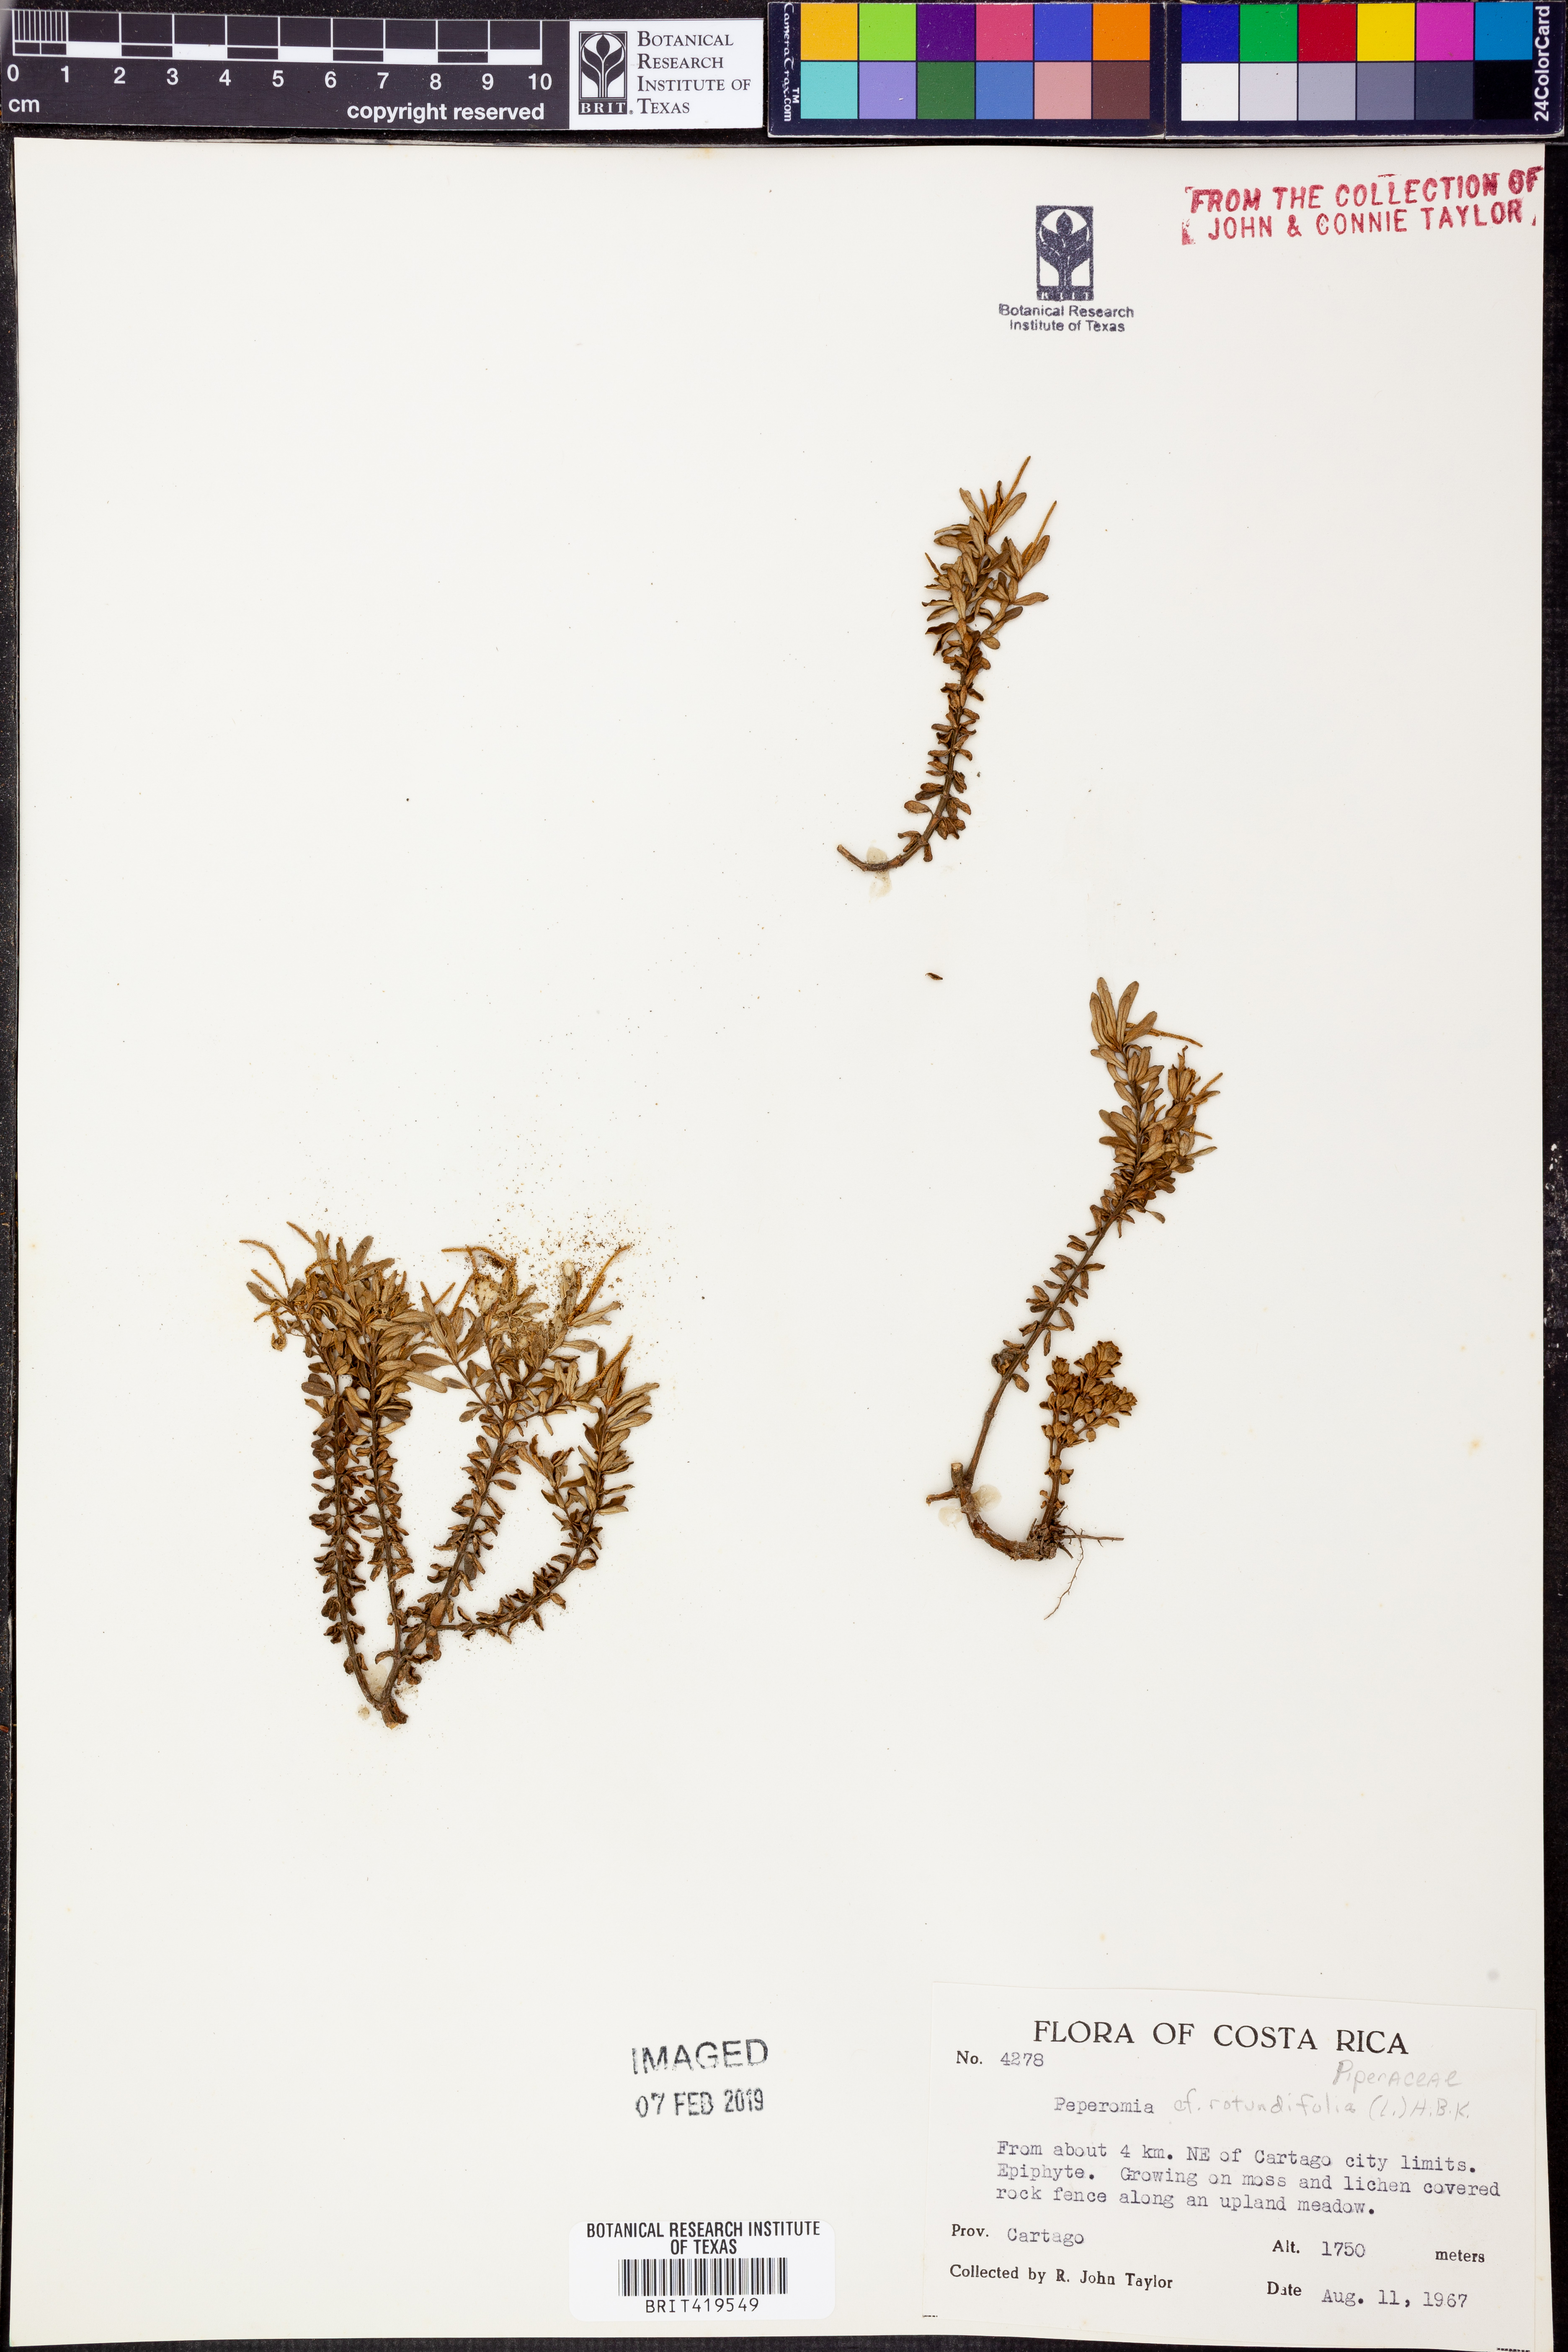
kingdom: Plantae
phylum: Tracheophyta
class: Magnoliopsida
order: Piperales
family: Piperaceae
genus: Peperomia
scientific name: Peperomia rotundifolia
